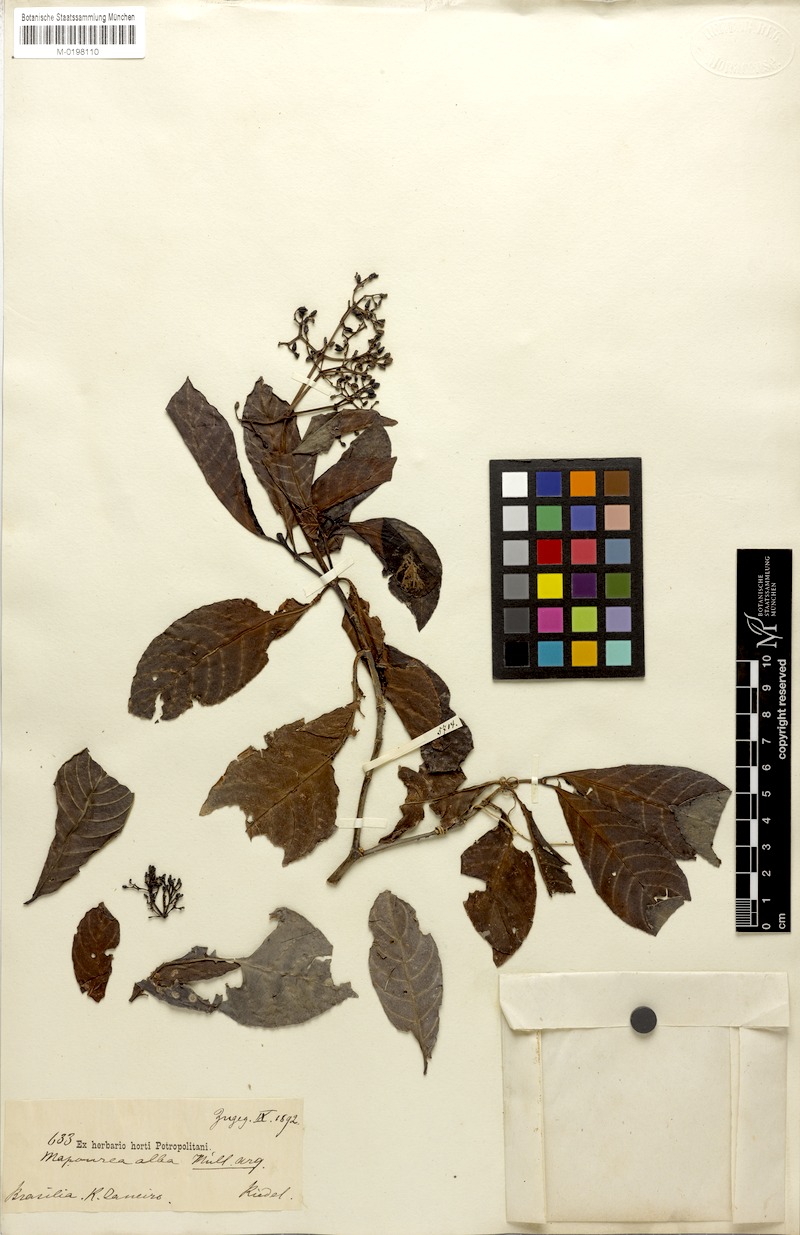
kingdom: Plantae
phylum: Tracheophyta
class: Magnoliopsida
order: Gentianales
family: Rubiaceae
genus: Psychotria
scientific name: Psychotria alba
